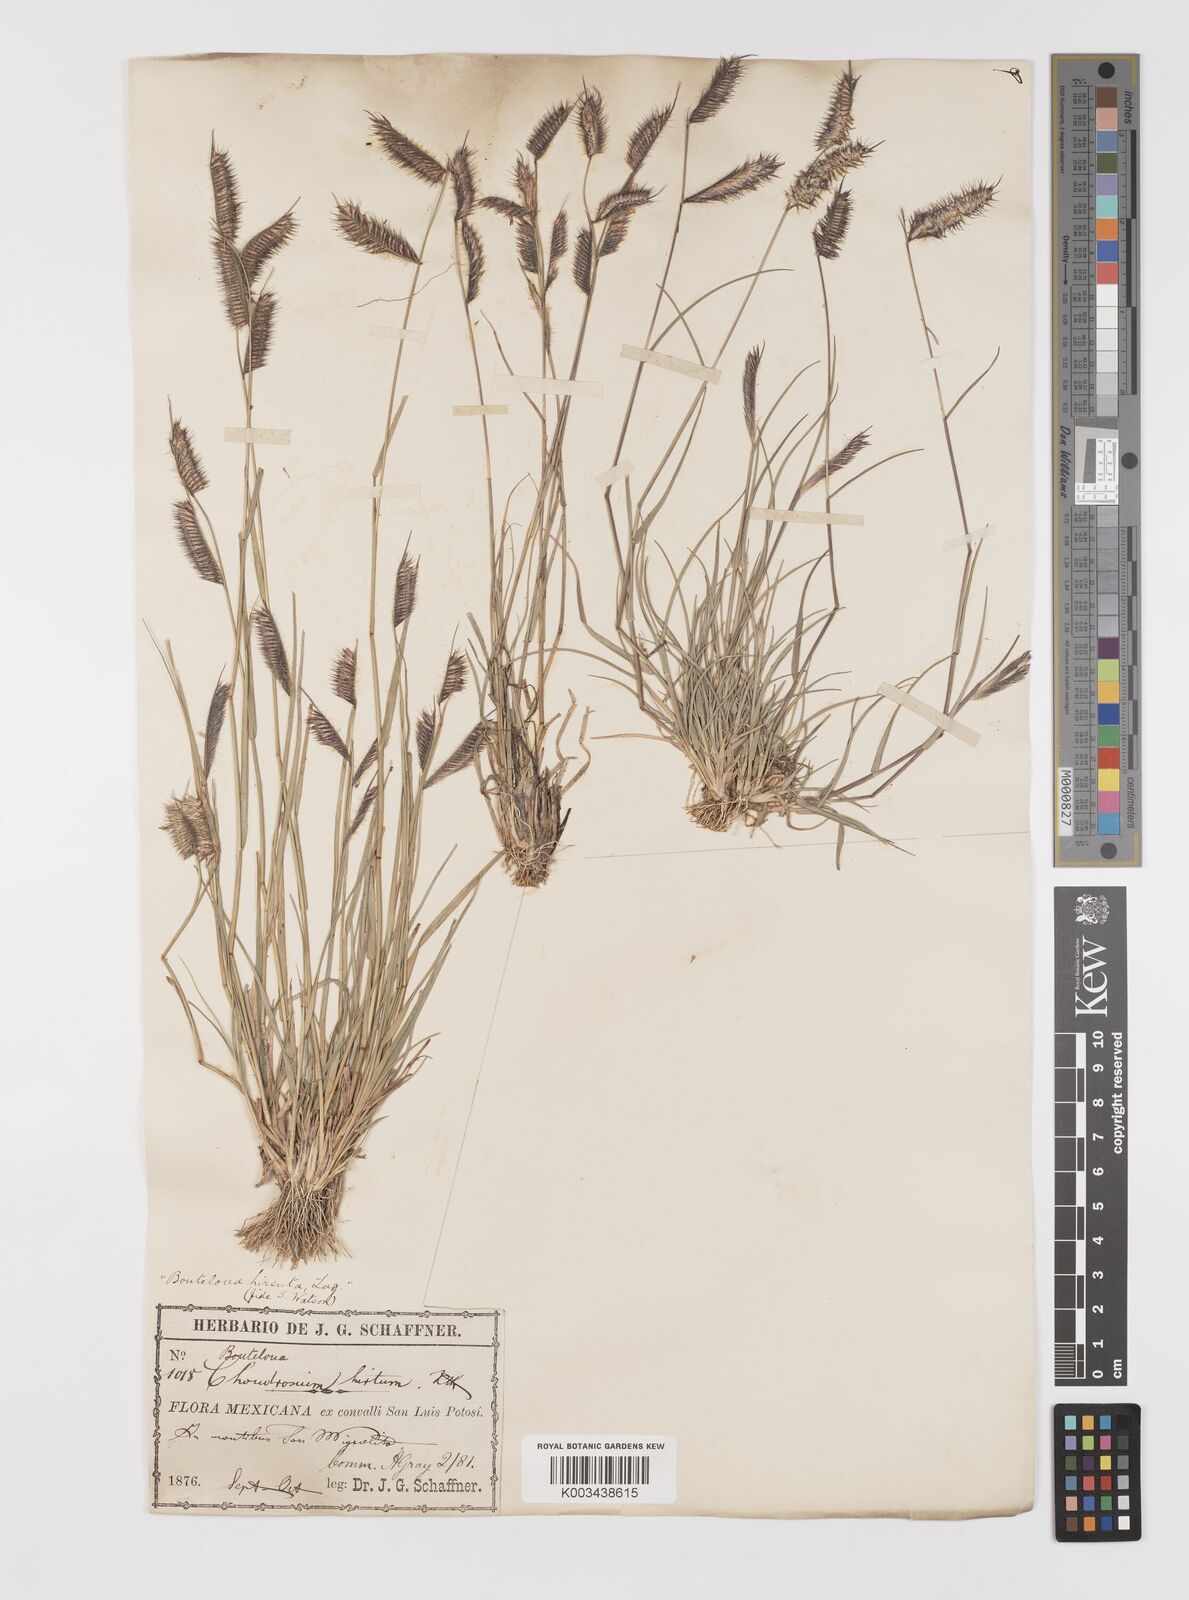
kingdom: Plantae
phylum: Tracheophyta
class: Liliopsida
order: Poales
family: Poaceae
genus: Bouteloua
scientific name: Bouteloua hirsuta
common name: Hairy grama
